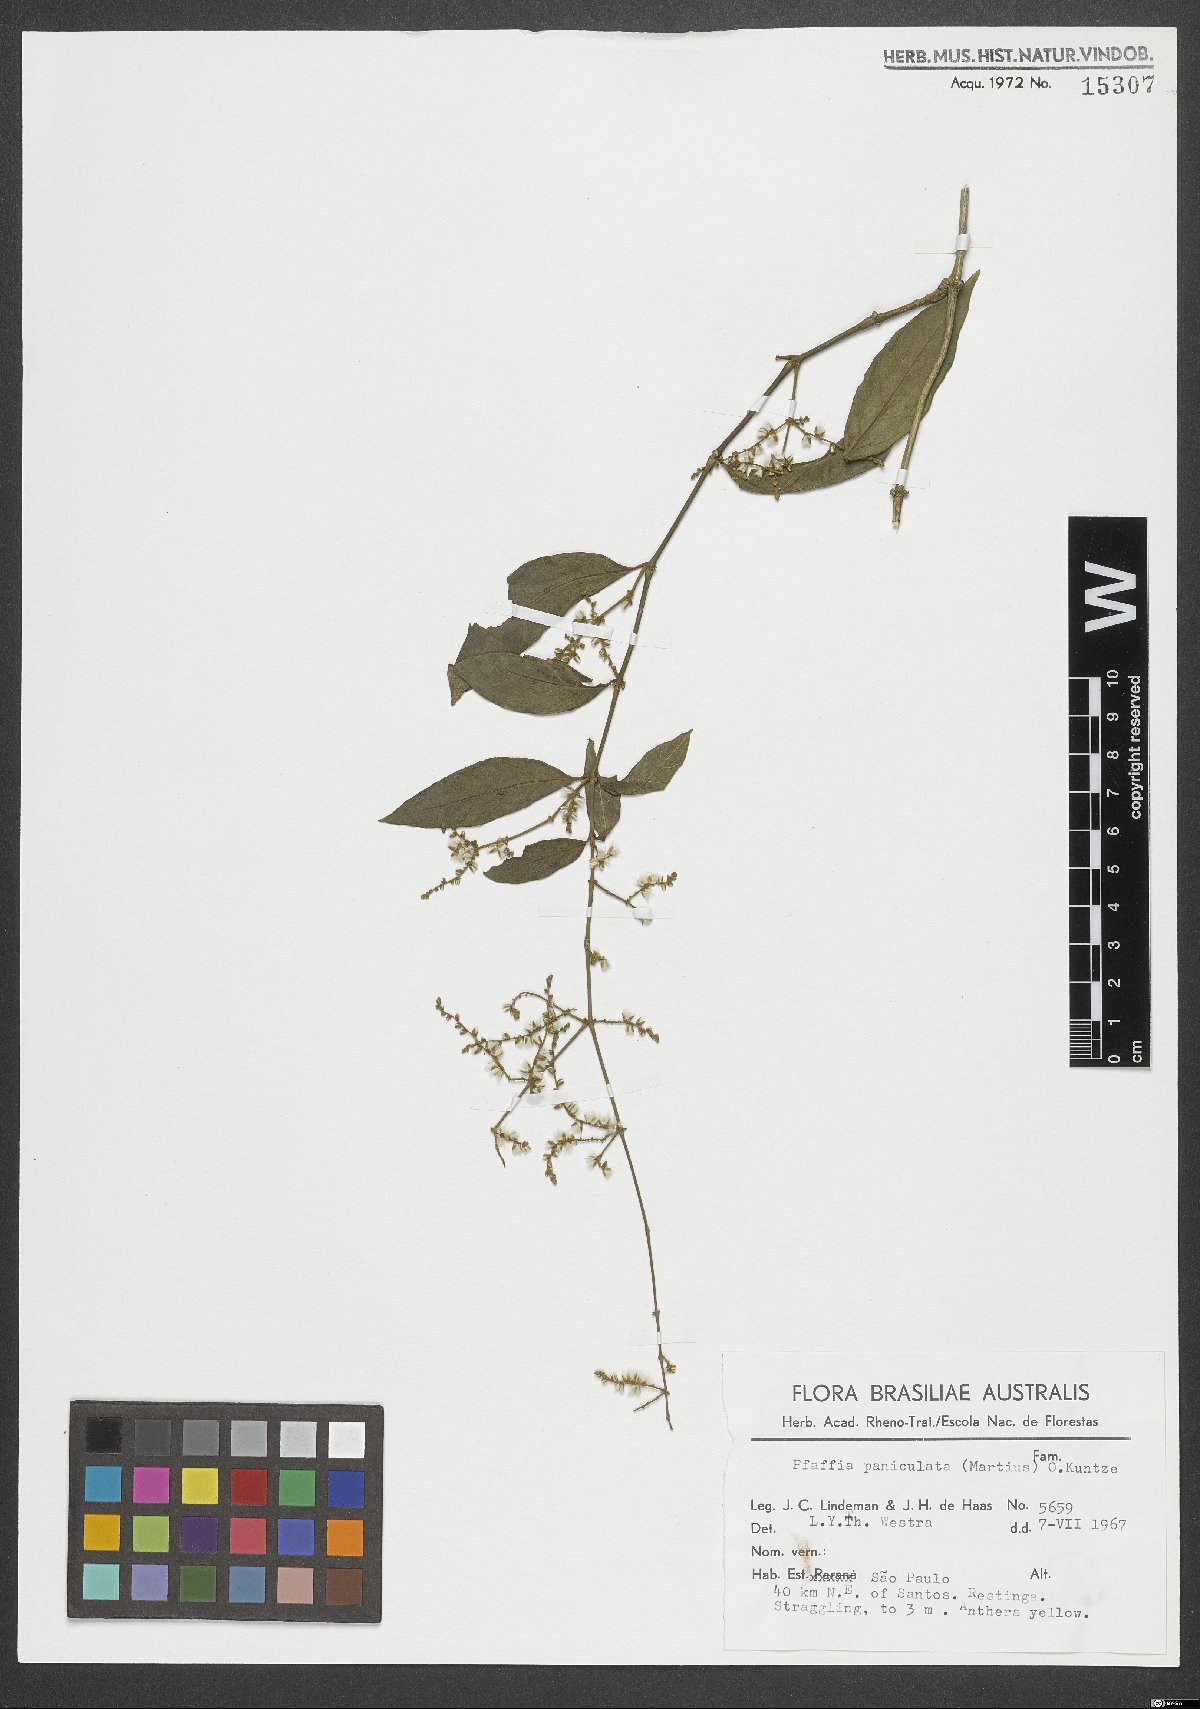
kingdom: Plantae
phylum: Tracheophyta
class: Magnoliopsida
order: Caryophyllales
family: Amaranthaceae
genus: Hebanthe
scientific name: Hebanthe erianthos
